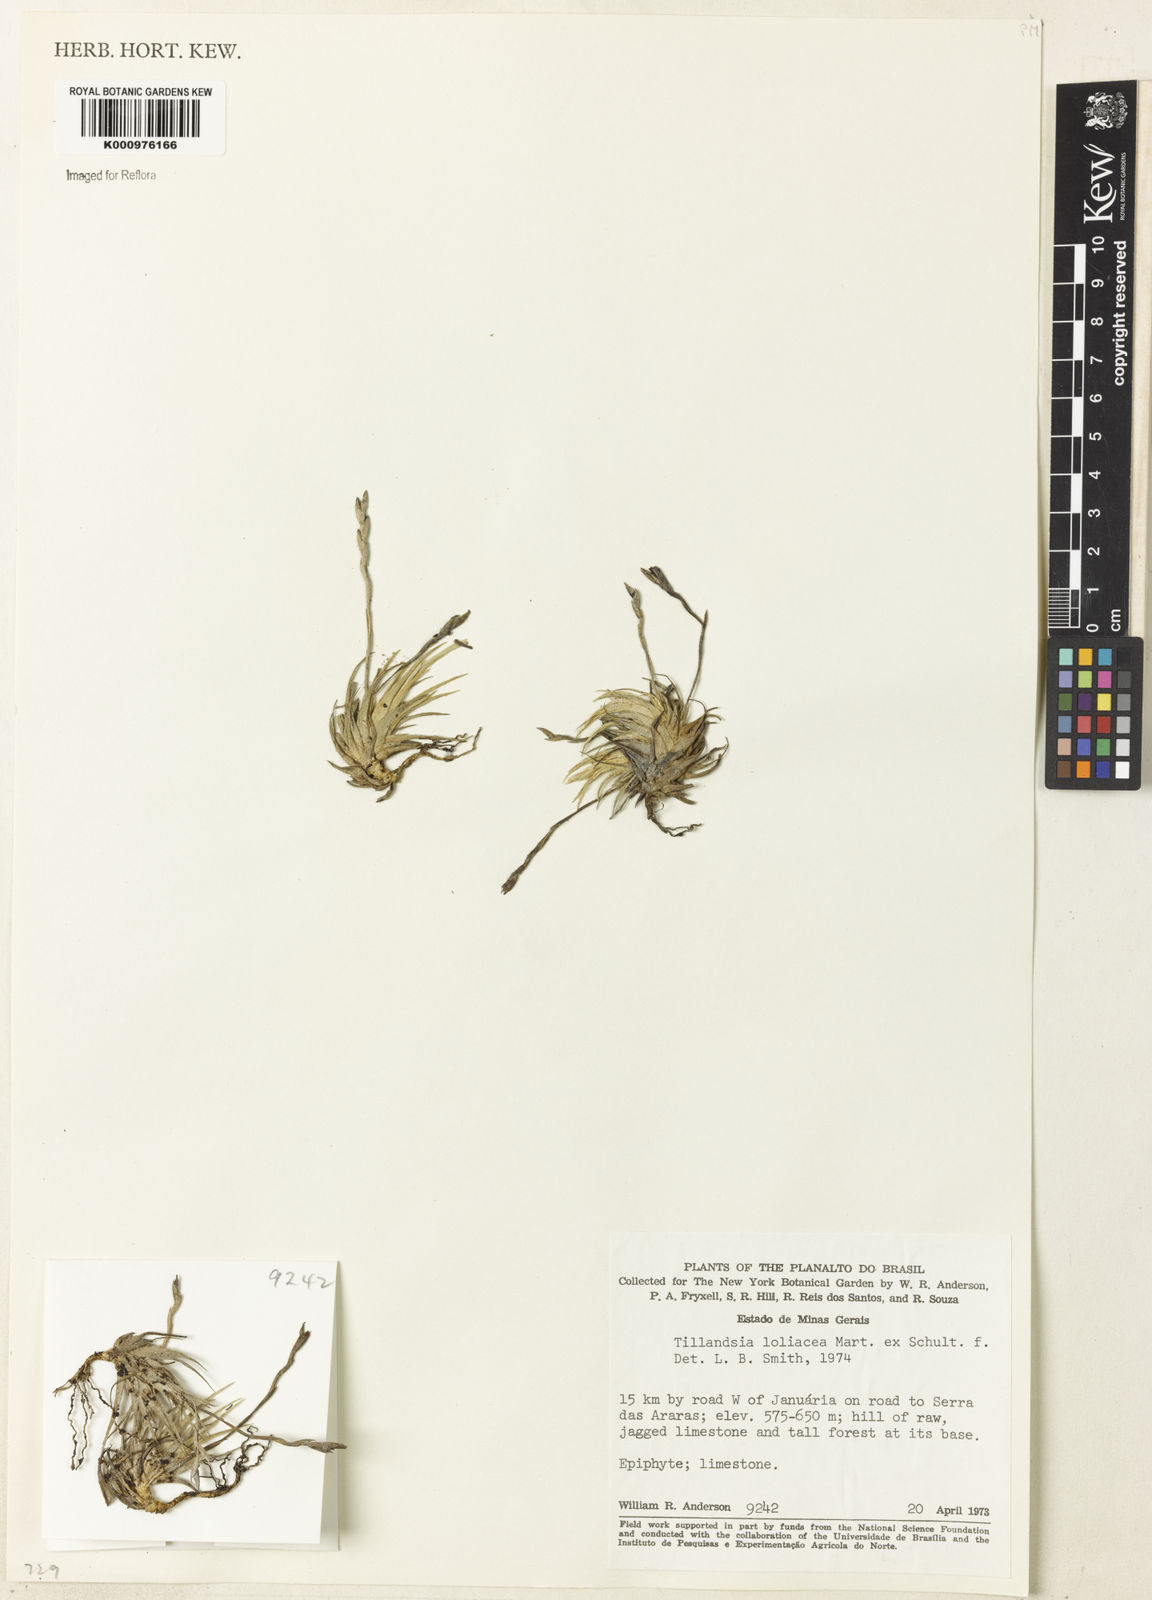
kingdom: Plantae
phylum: Tracheophyta
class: Liliopsida
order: Poales
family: Bromeliaceae
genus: Tillandsia
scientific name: Tillandsia loliacea
